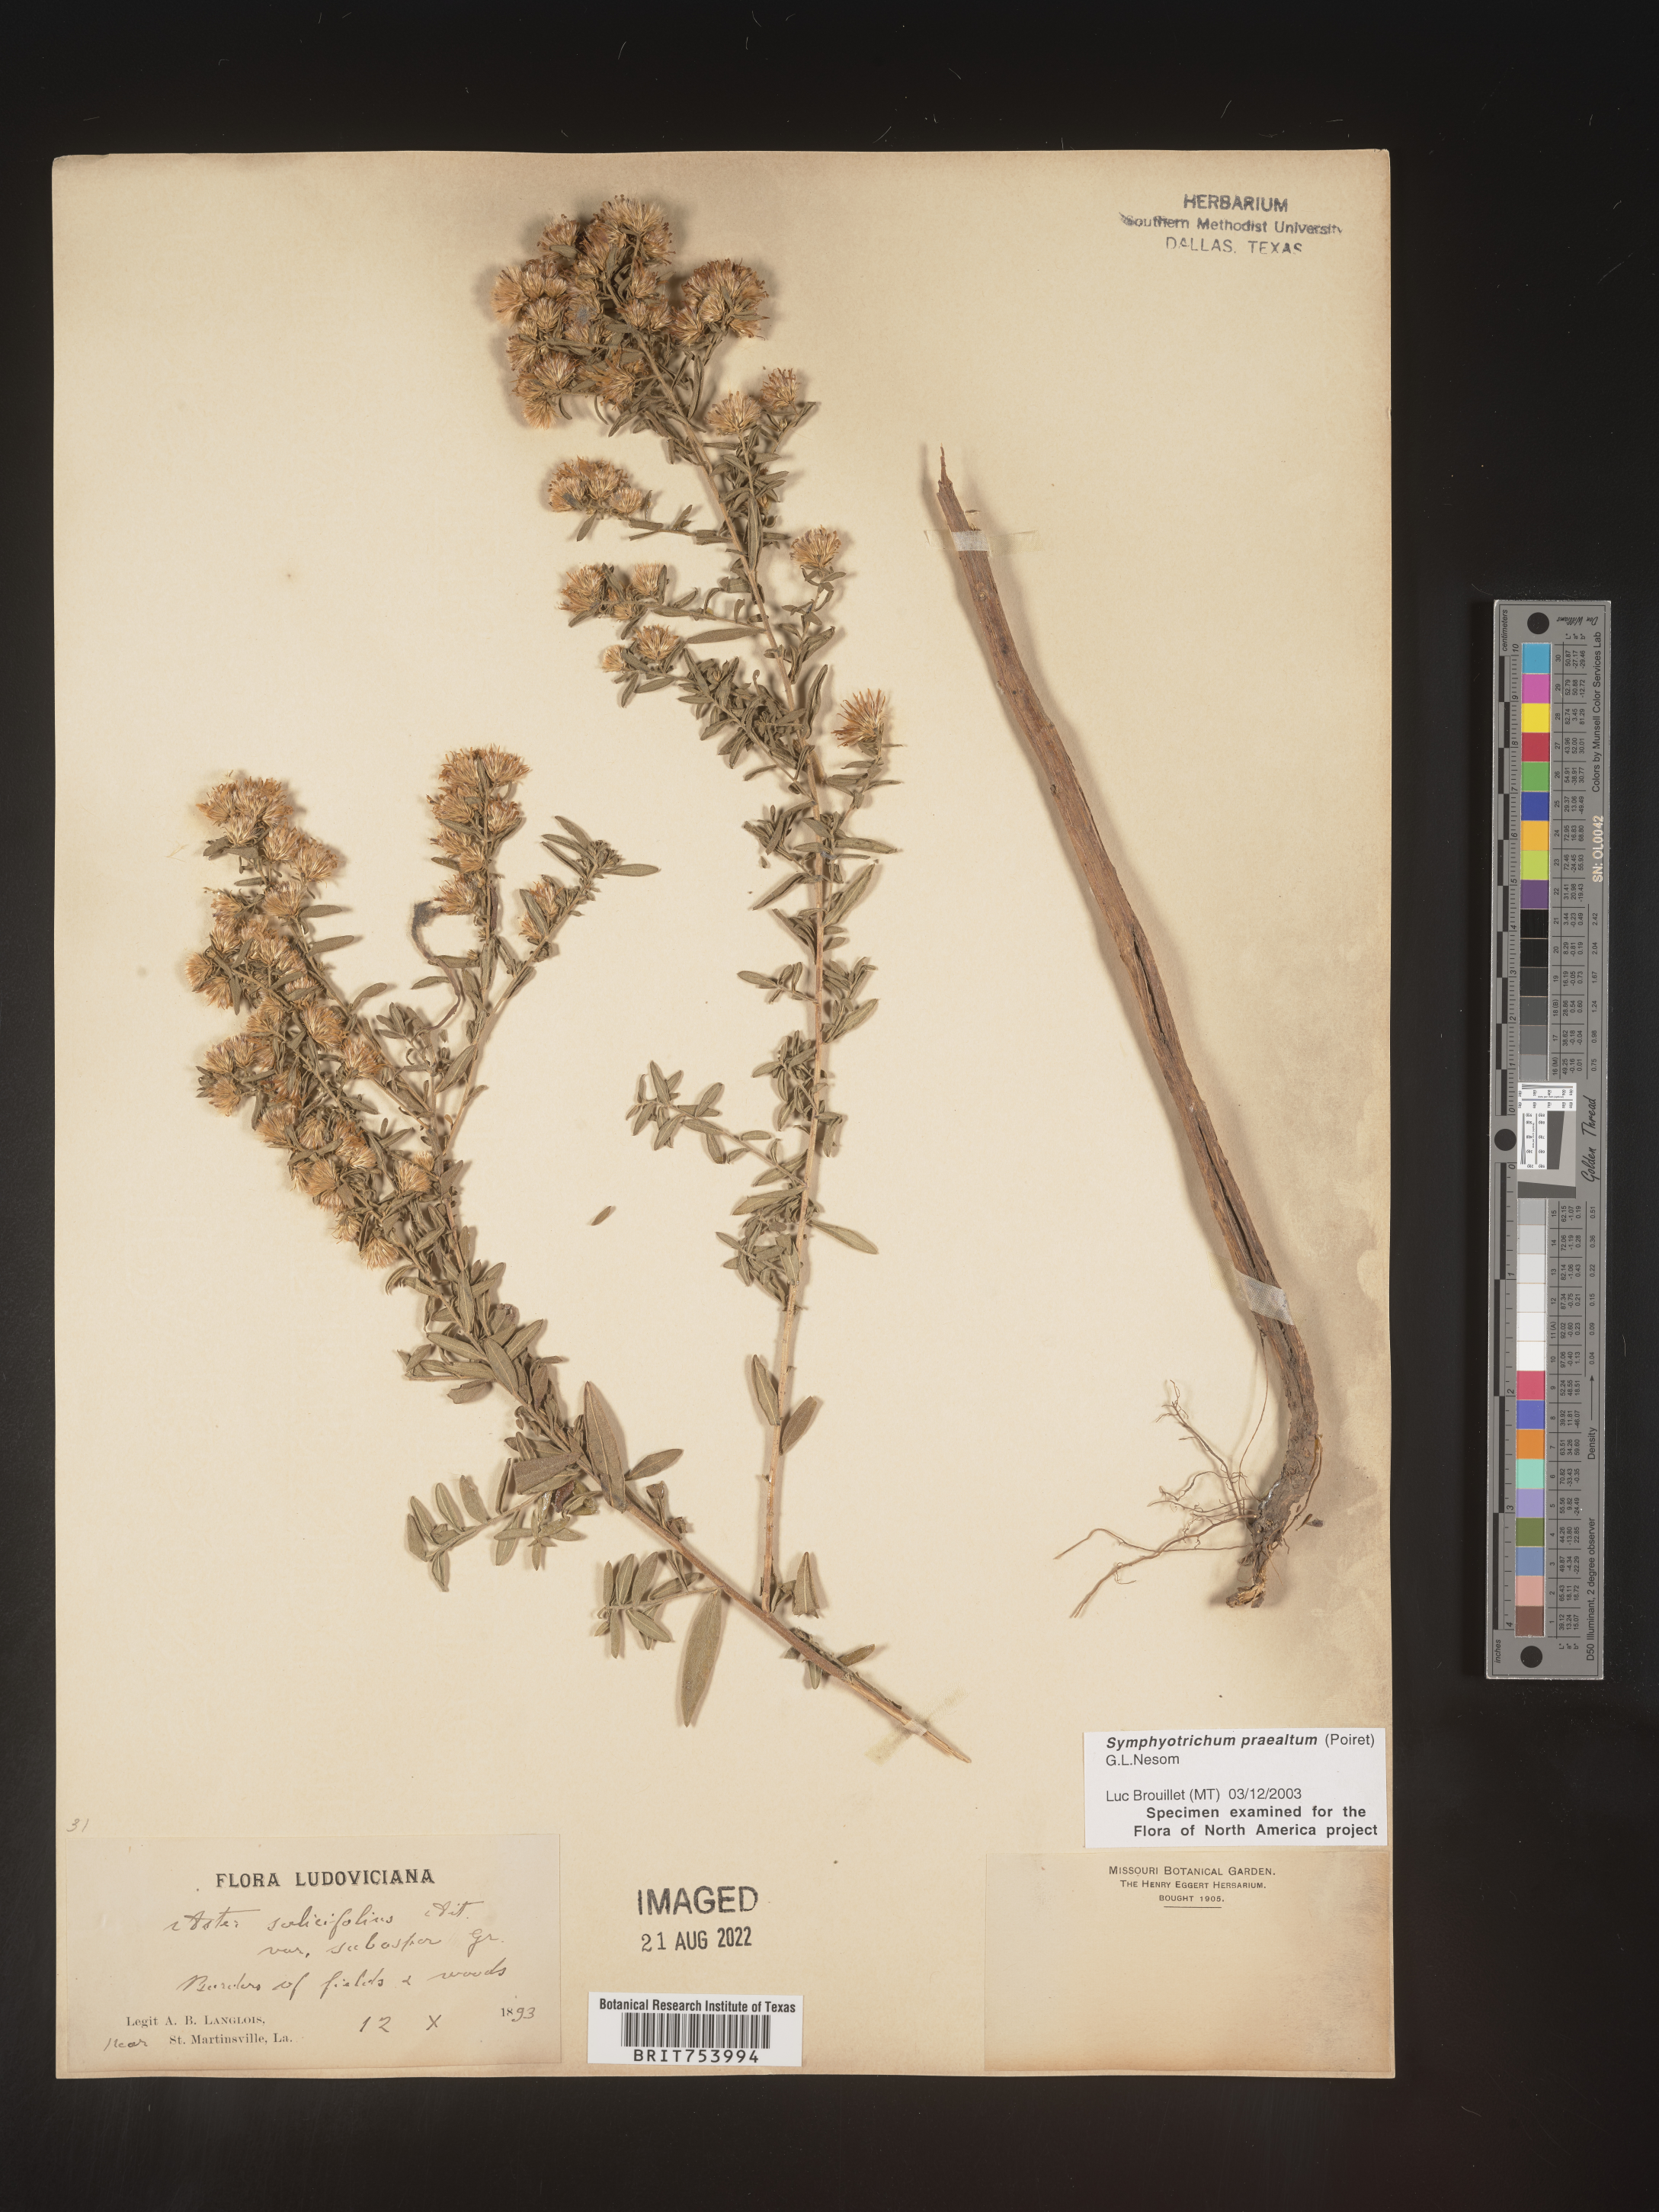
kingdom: Plantae
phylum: Tracheophyta
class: Magnoliopsida
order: Asterales
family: Asteraceae
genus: Symphyotrichum
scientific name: Symphyotrichum praealtum
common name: Willow aster
